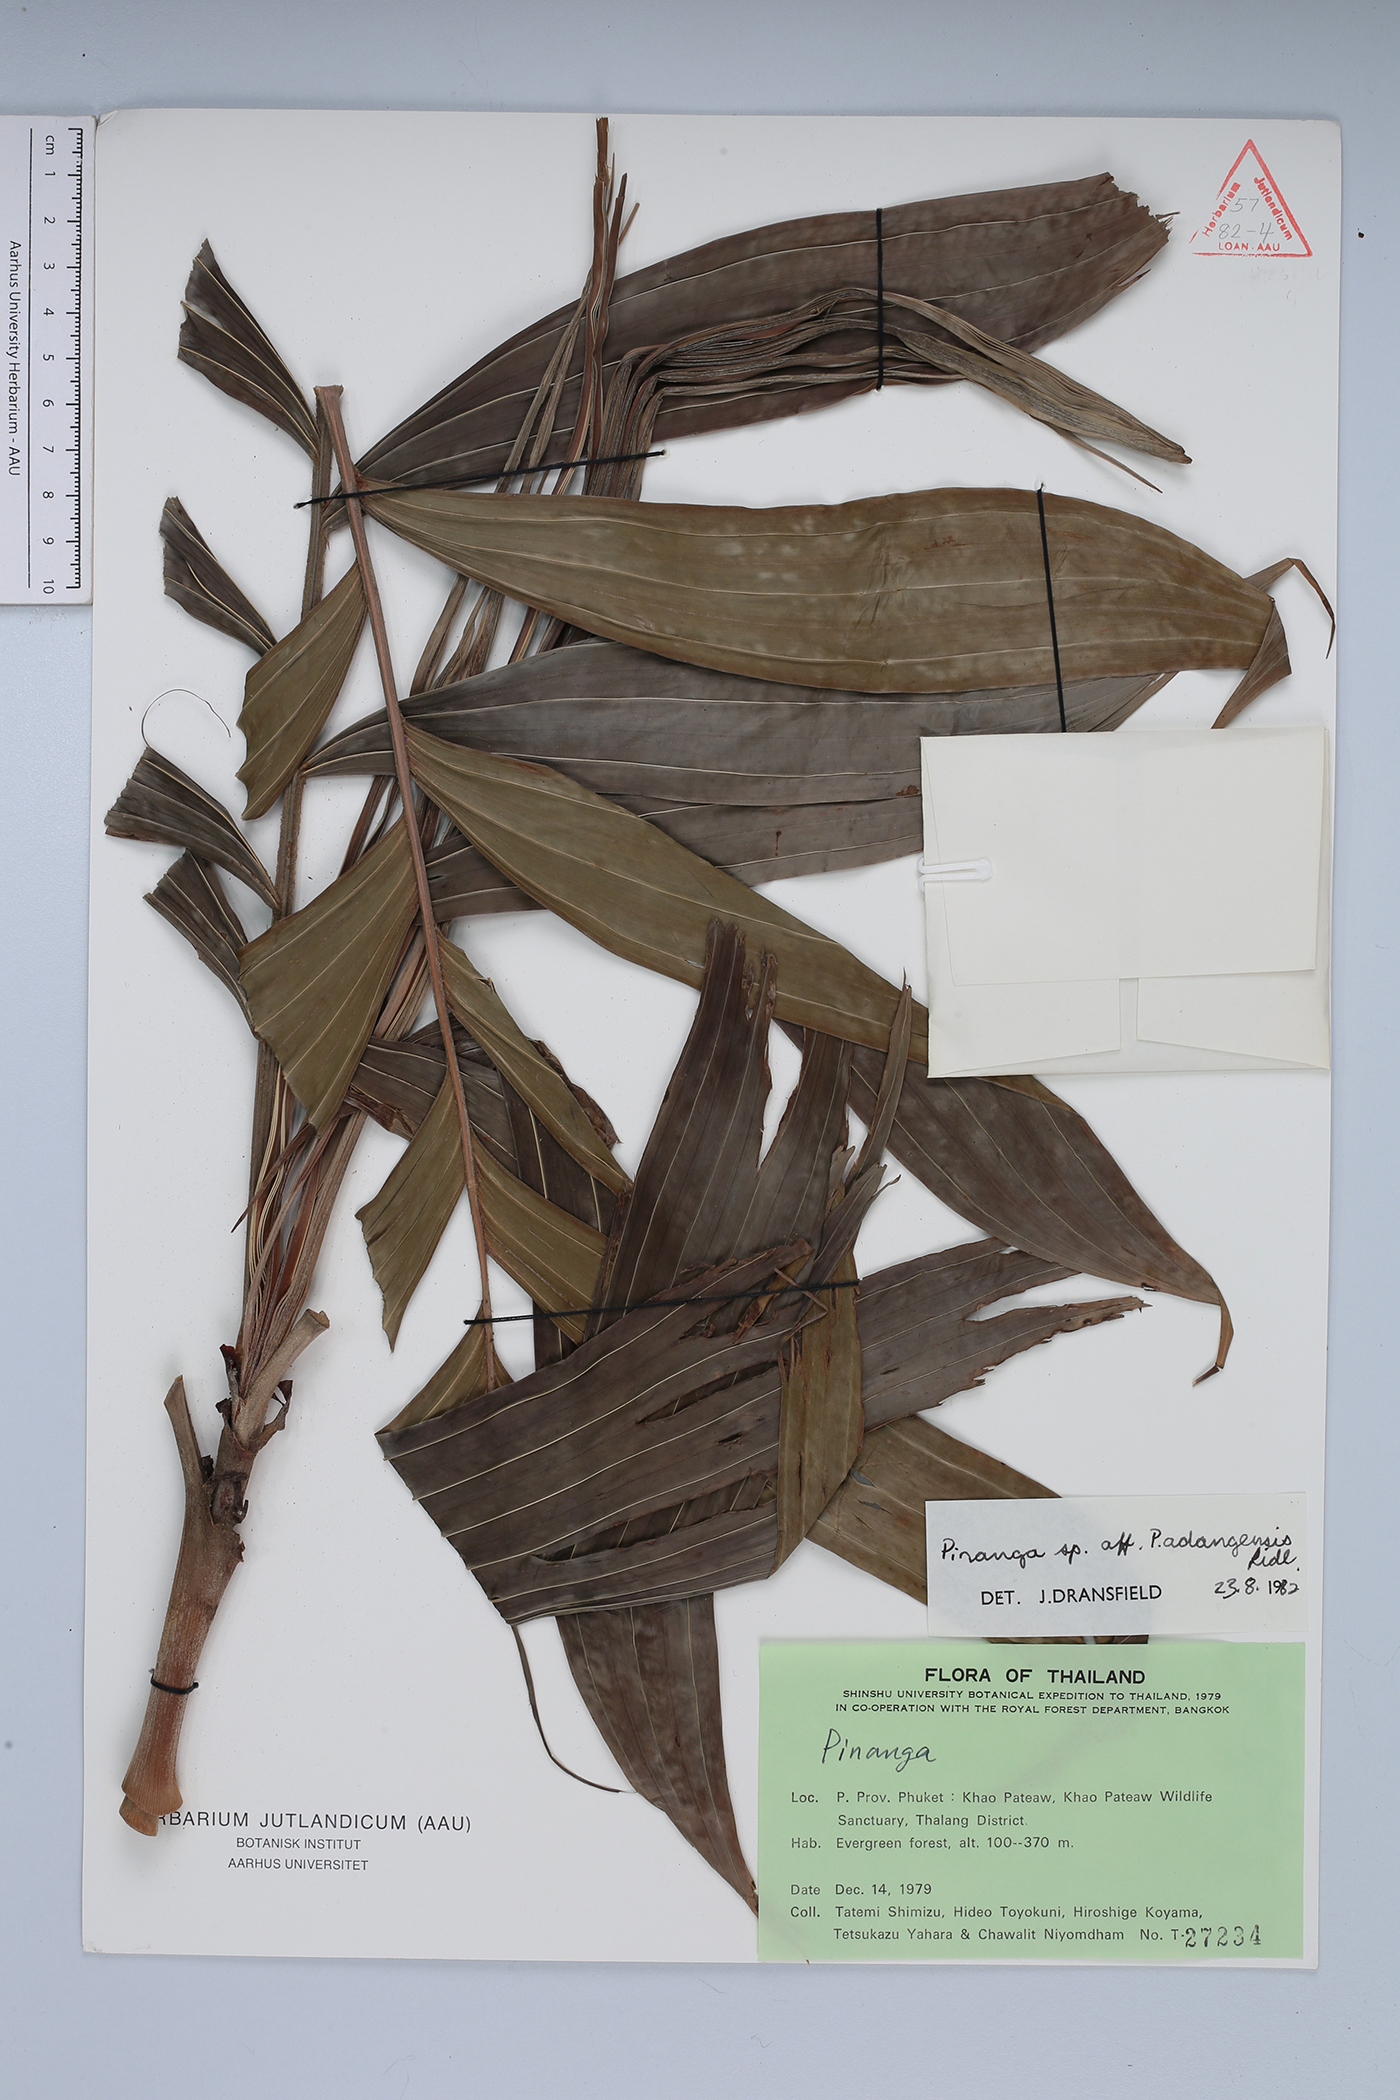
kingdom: Plantae
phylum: Tracheophyta
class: Liliopsida
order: Arecales
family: Arecaceae
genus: Pinanga
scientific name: Pinanga adangensis
